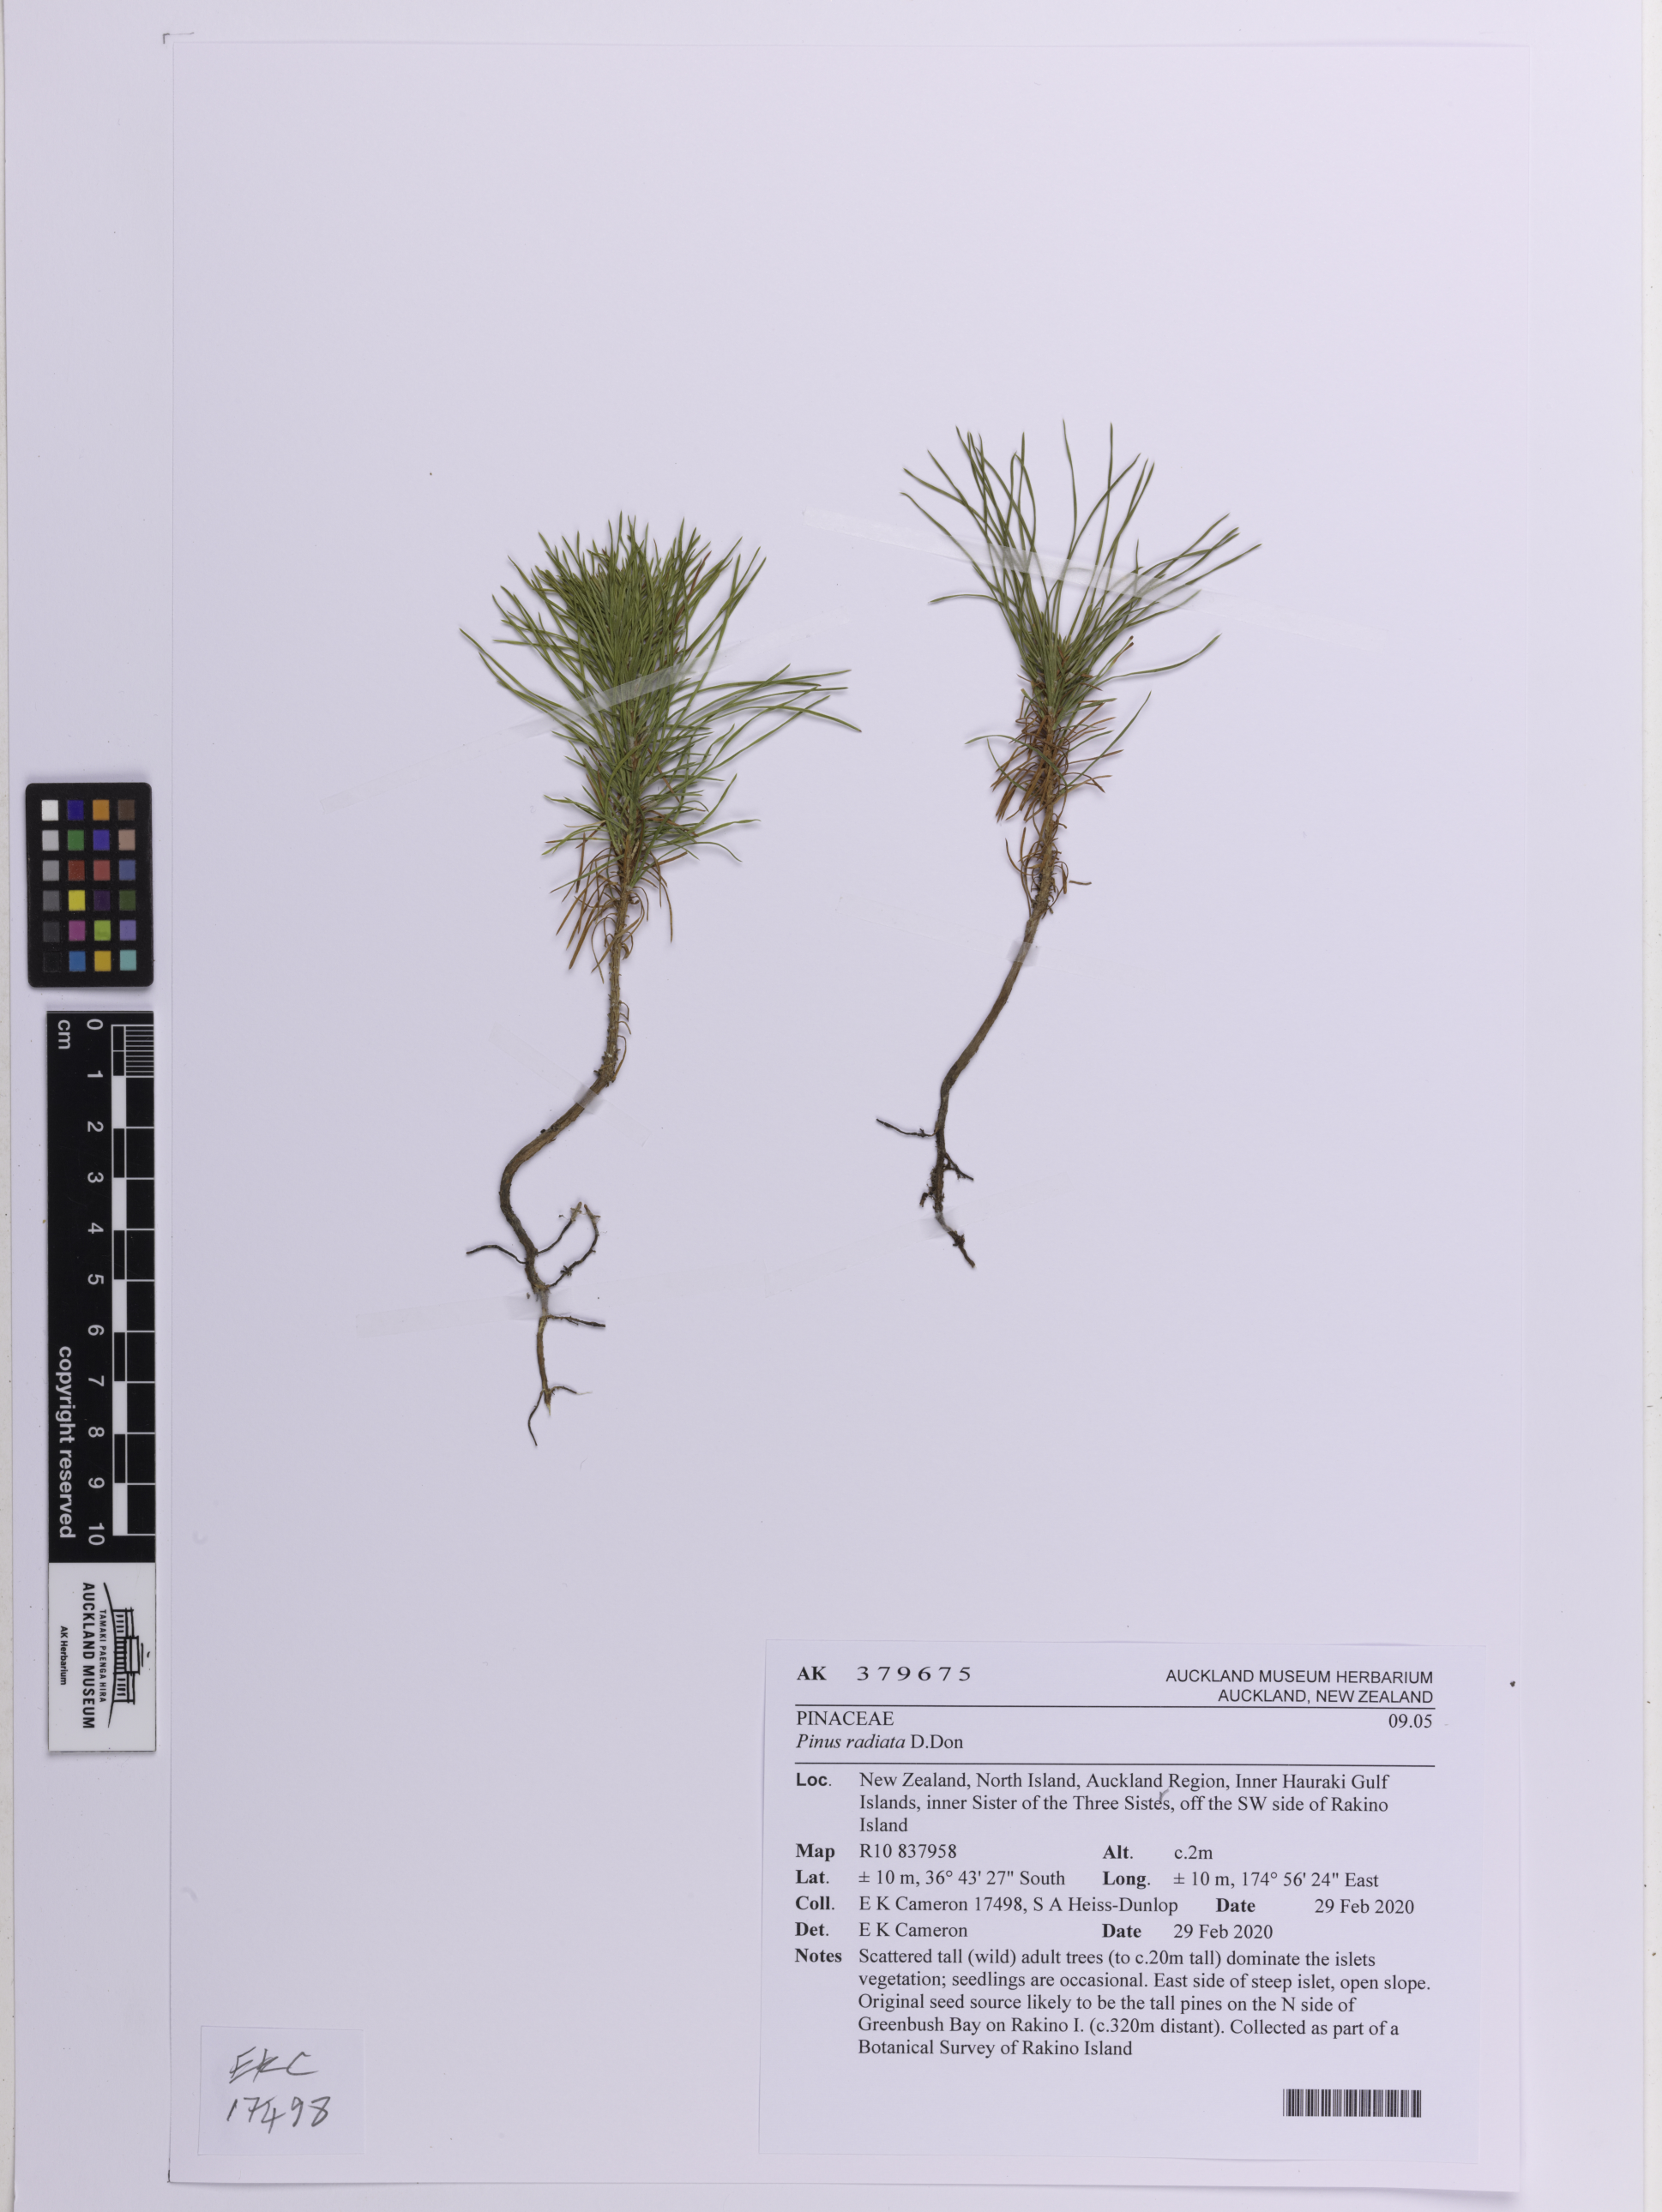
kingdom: Plantae
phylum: Tracheophyta
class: Pinopsida
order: Pinales
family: Pinaceae
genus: Pinus
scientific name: Pinus radiata
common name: Monterey pine
